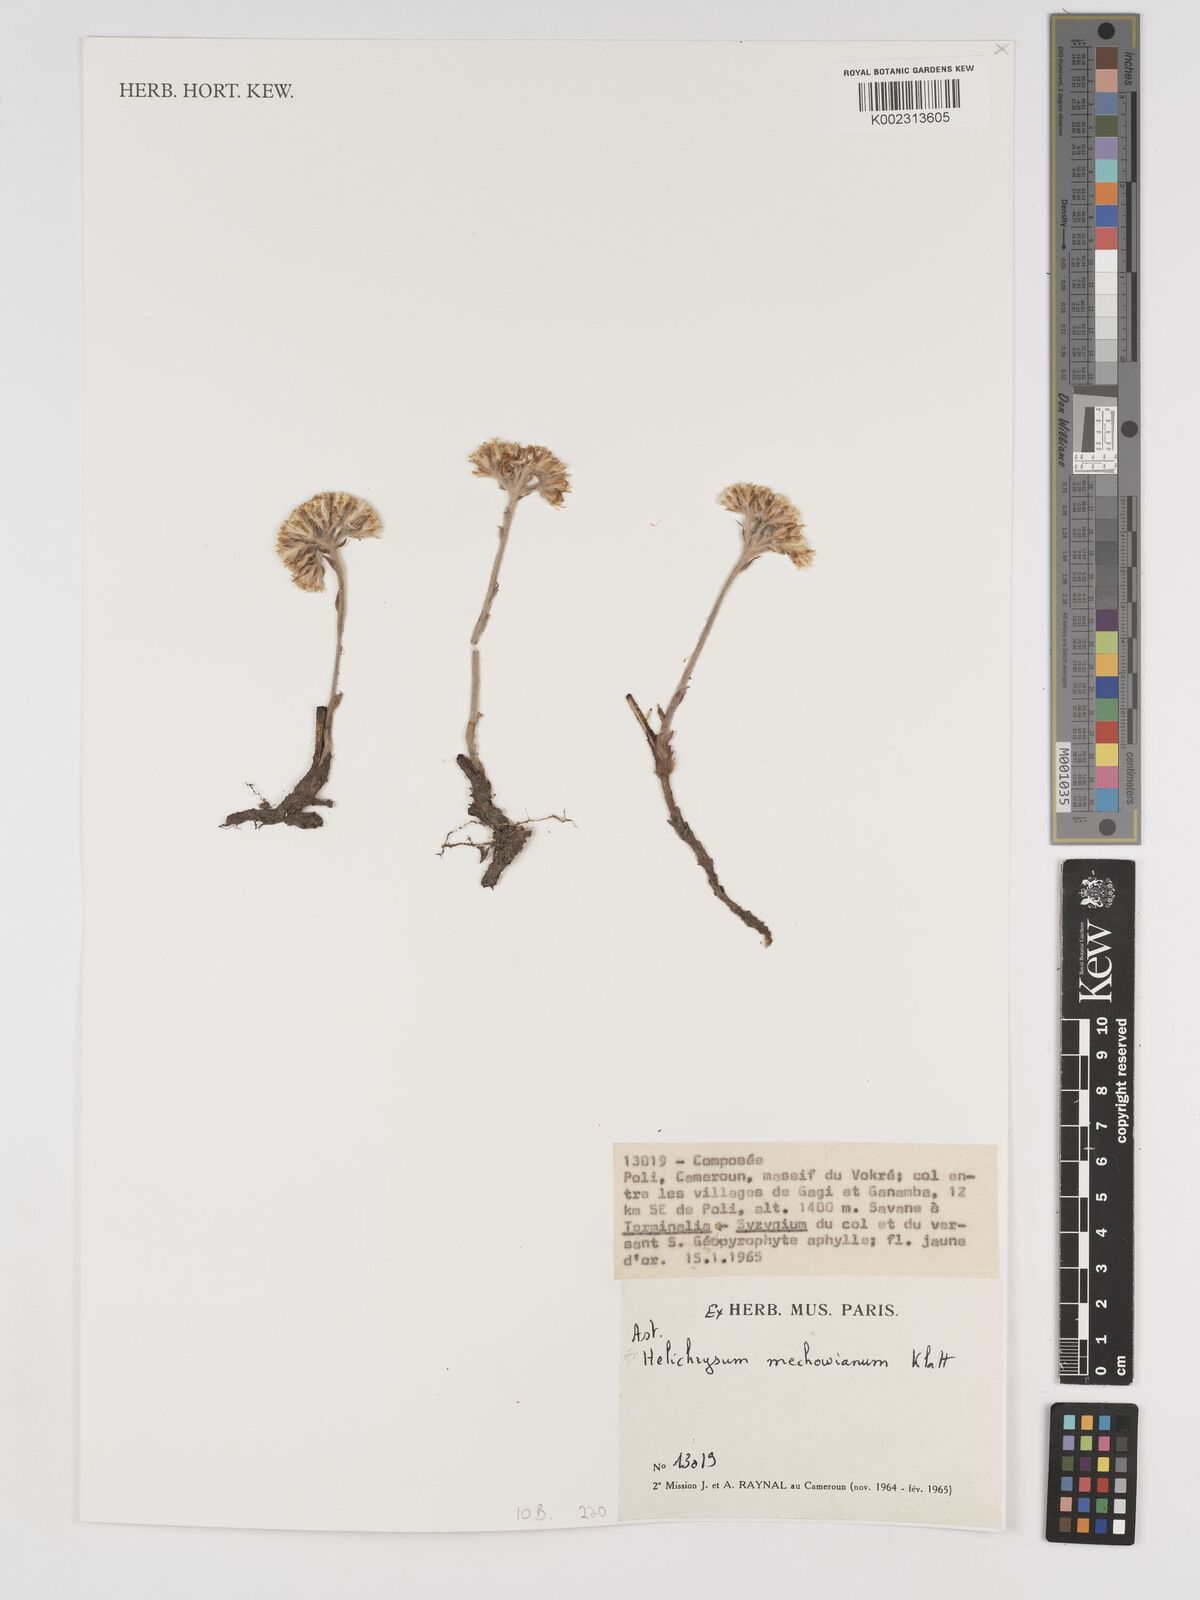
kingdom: Plantae
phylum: Tracheophyta
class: Magnoliopsida
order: Asterales
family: Asteraceae
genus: Helichrysum
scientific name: Helichrysum mechowianum
